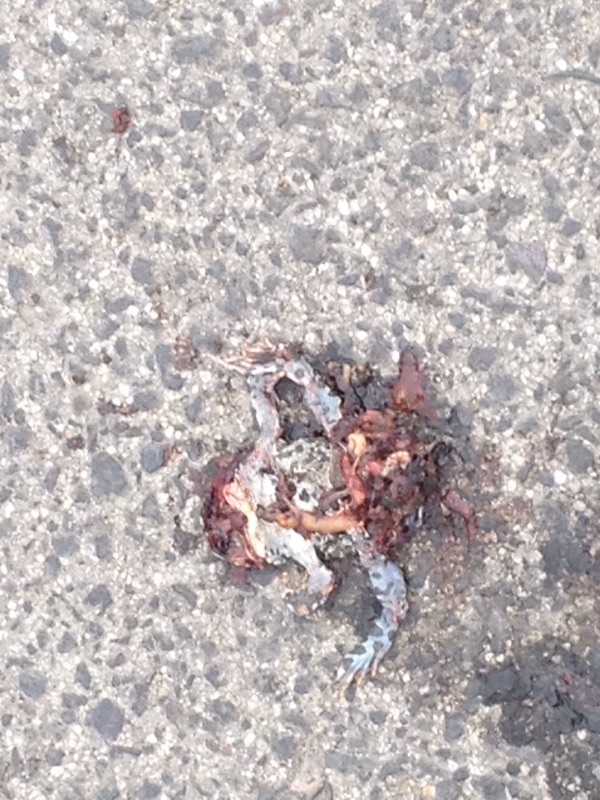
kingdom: Animalia
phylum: Chordata
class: Amphibia
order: Anura
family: Bufonidae
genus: Bufotes
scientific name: Bufotes viridis
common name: European green toad
